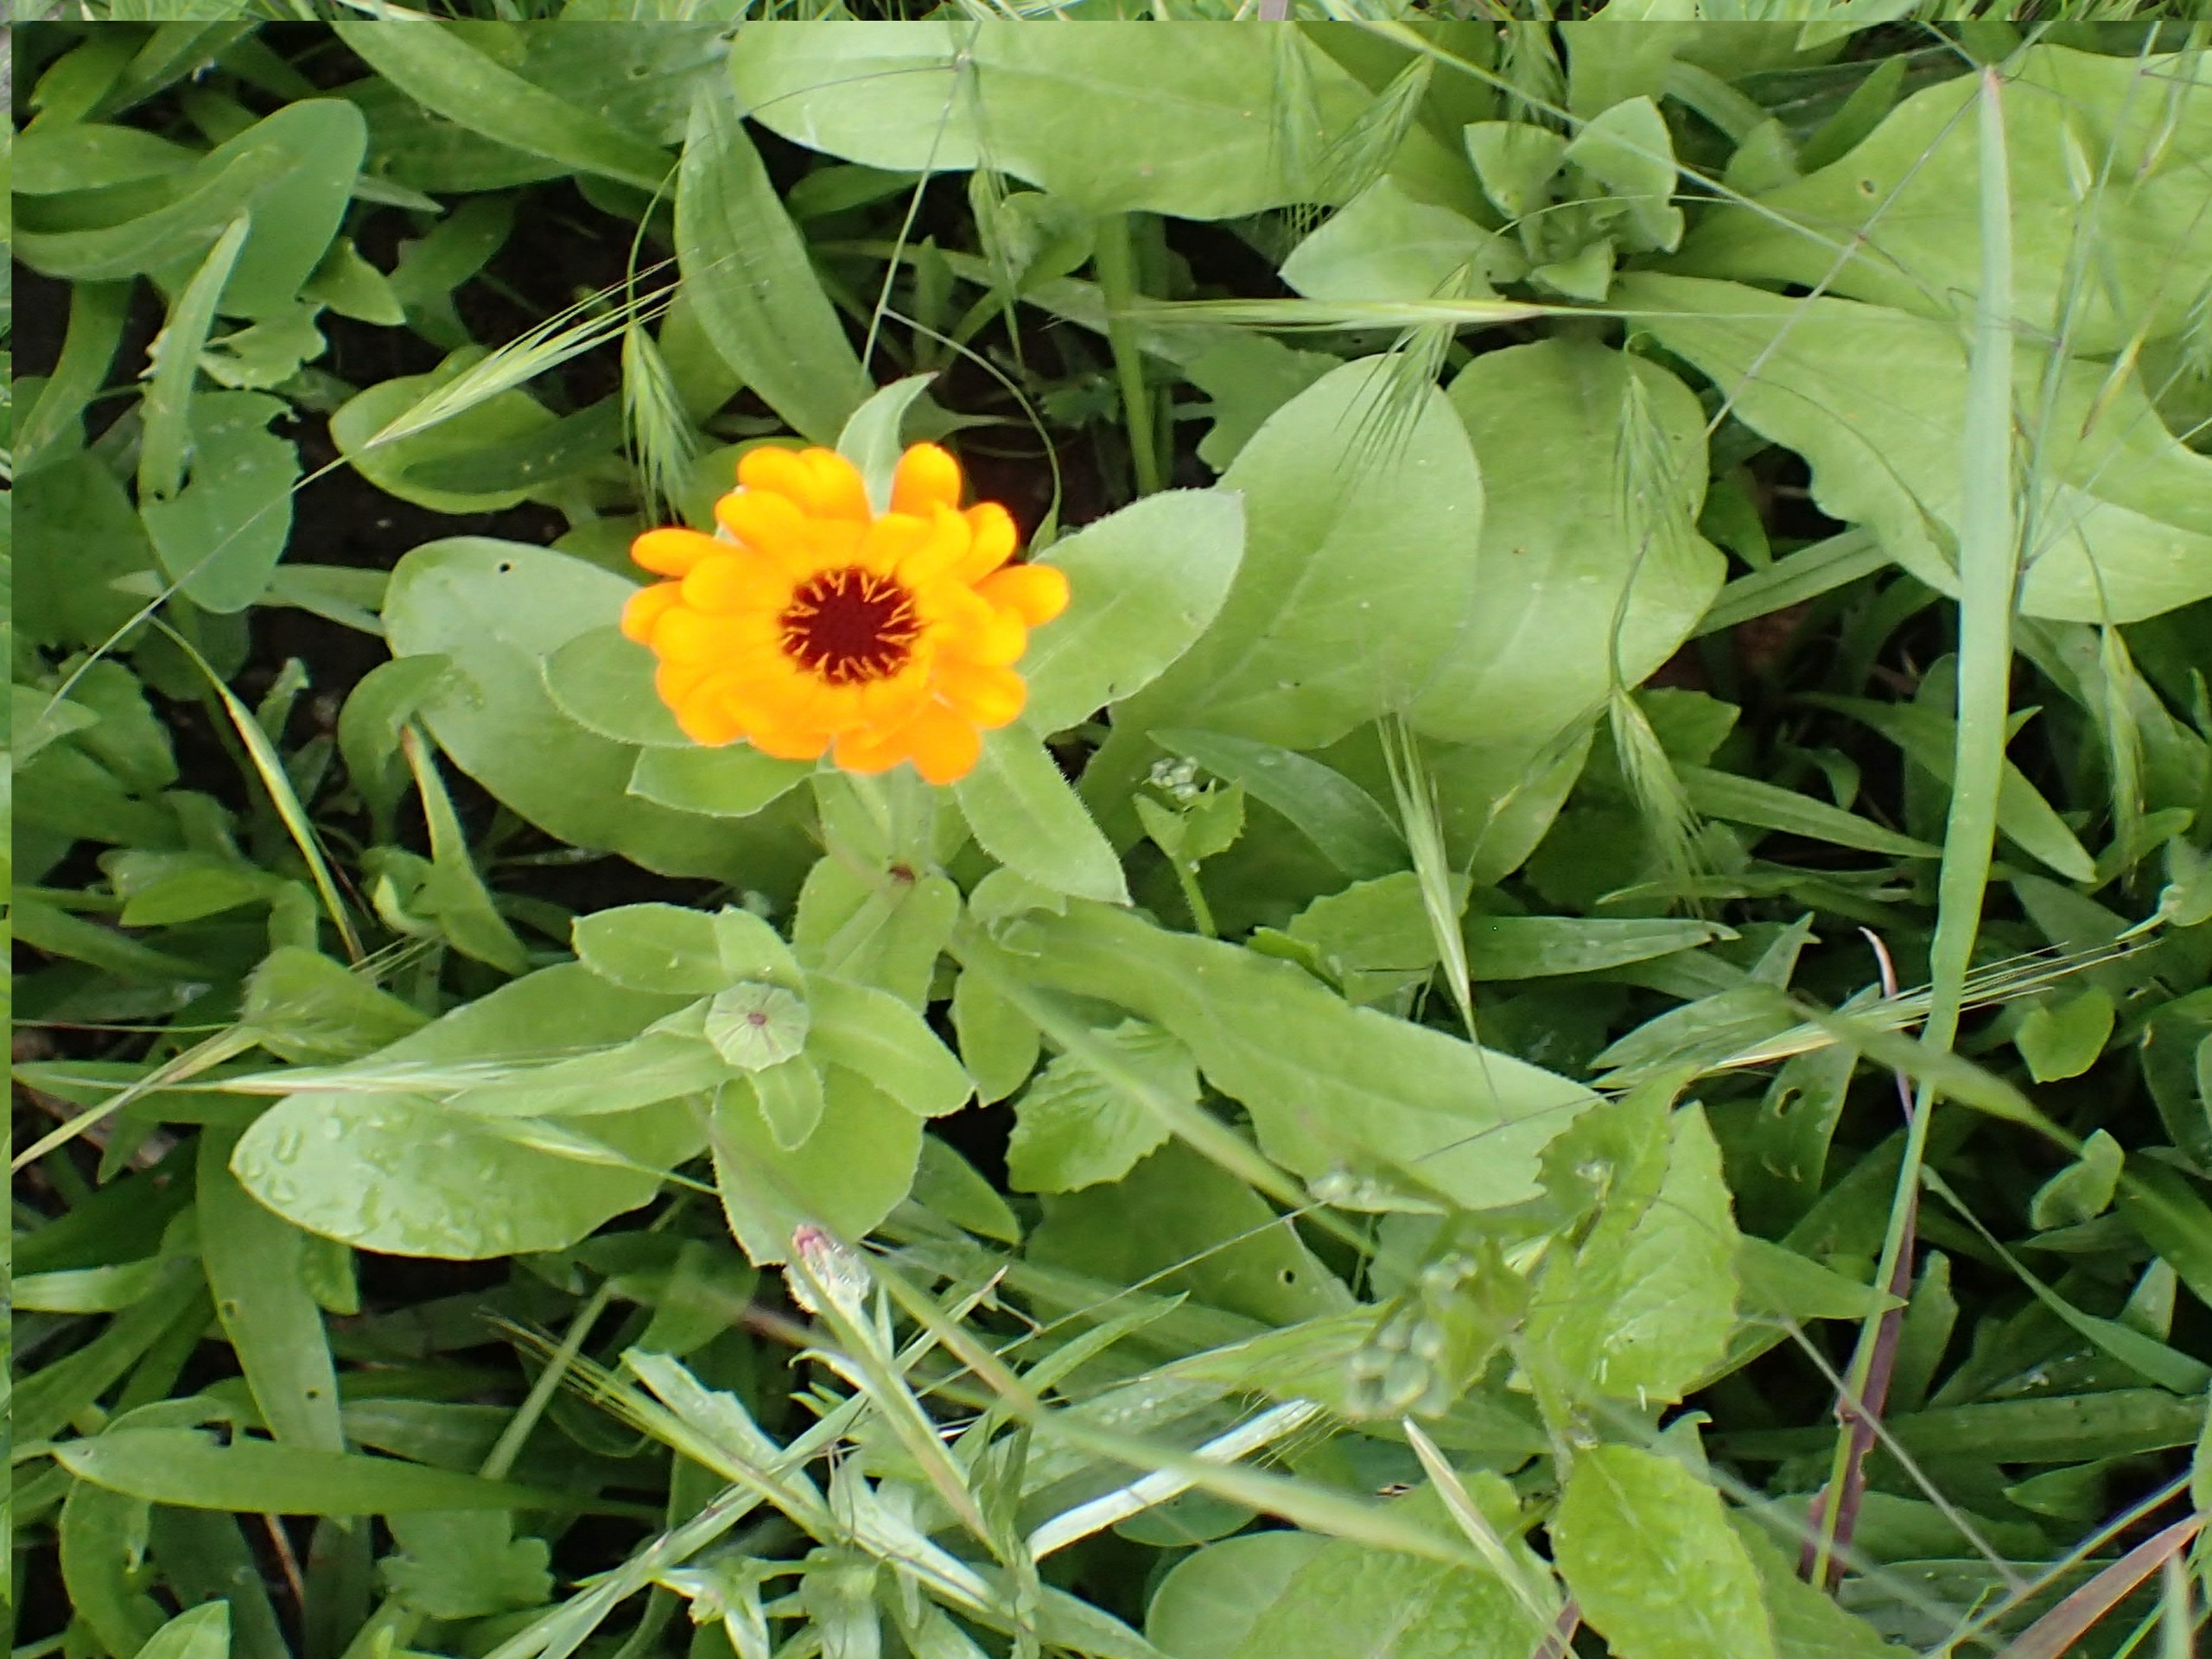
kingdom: Plantae
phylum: Tracheophyta
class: Magnoliopsida
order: Asterales
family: Asteraceae
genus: Calendula
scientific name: Calendula officinalis
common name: Have-morgenfrue
